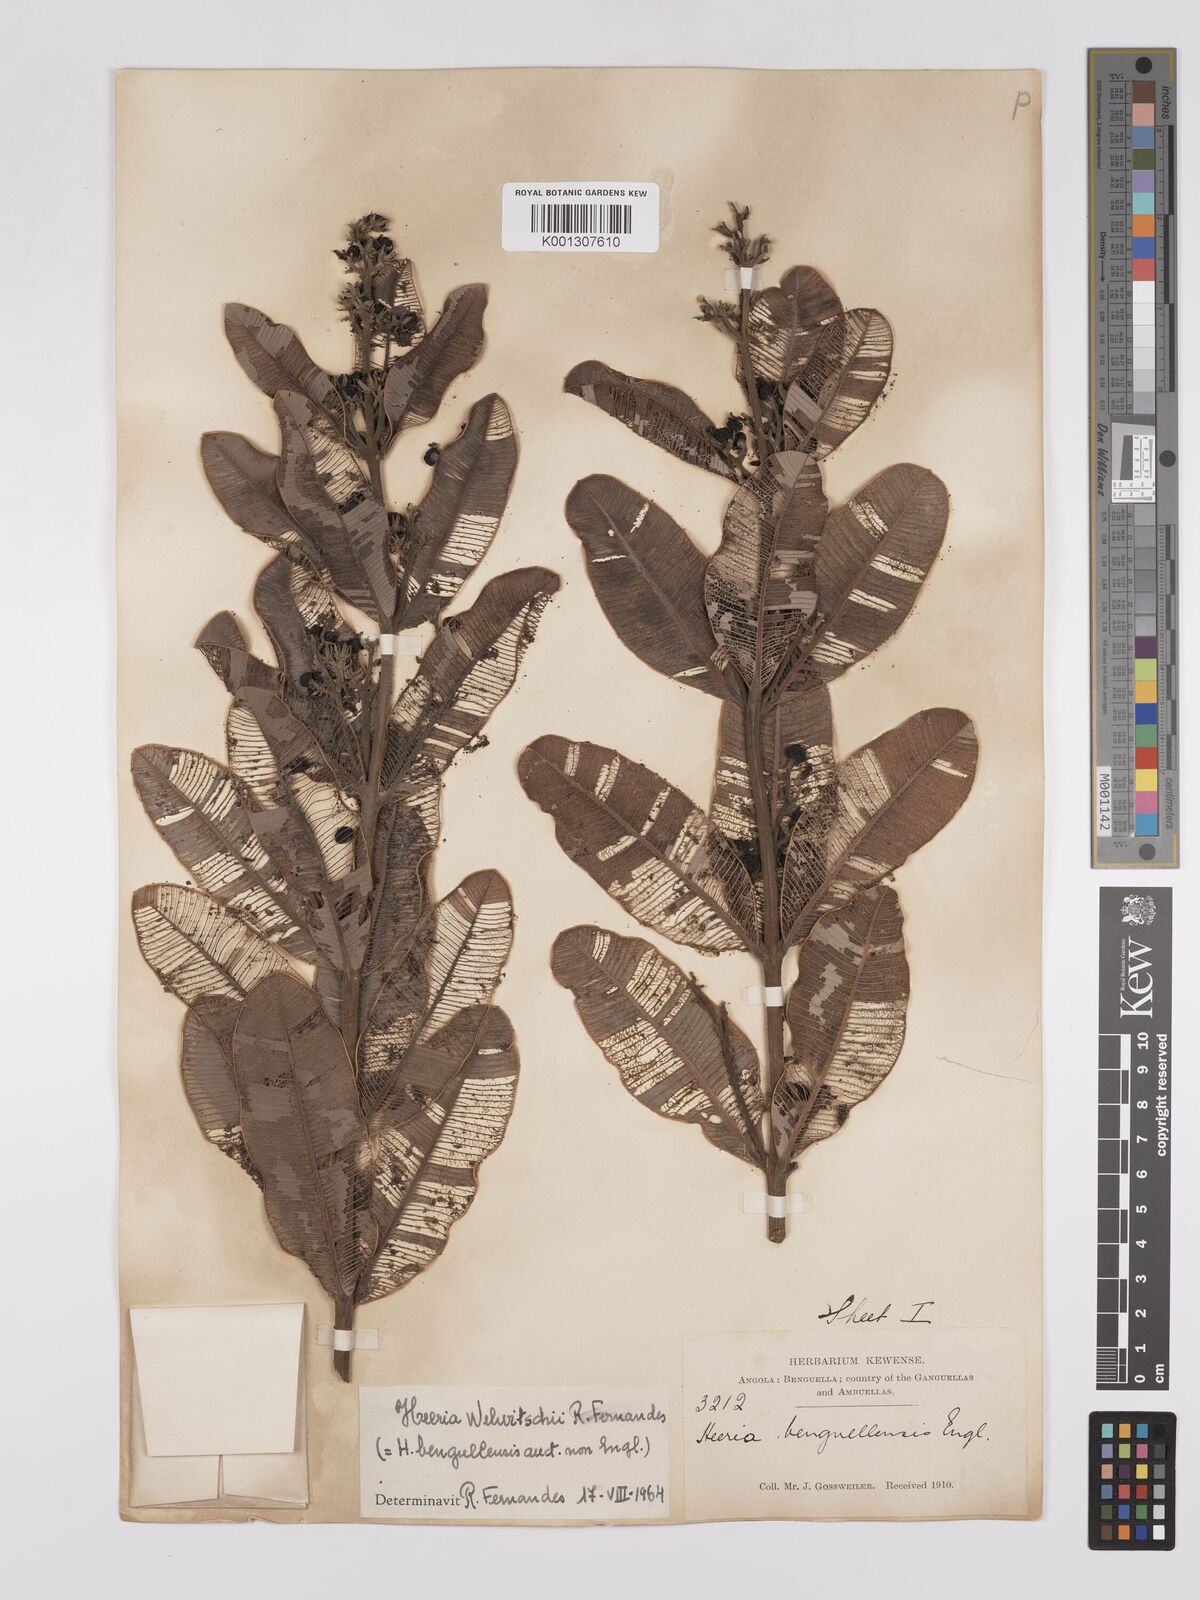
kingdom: Plantae
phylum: Tracheophyta
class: Magnoliopsida
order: Sapindales
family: Anacardiaceae
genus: Ozoroa
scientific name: Ozoroa benguellensis
